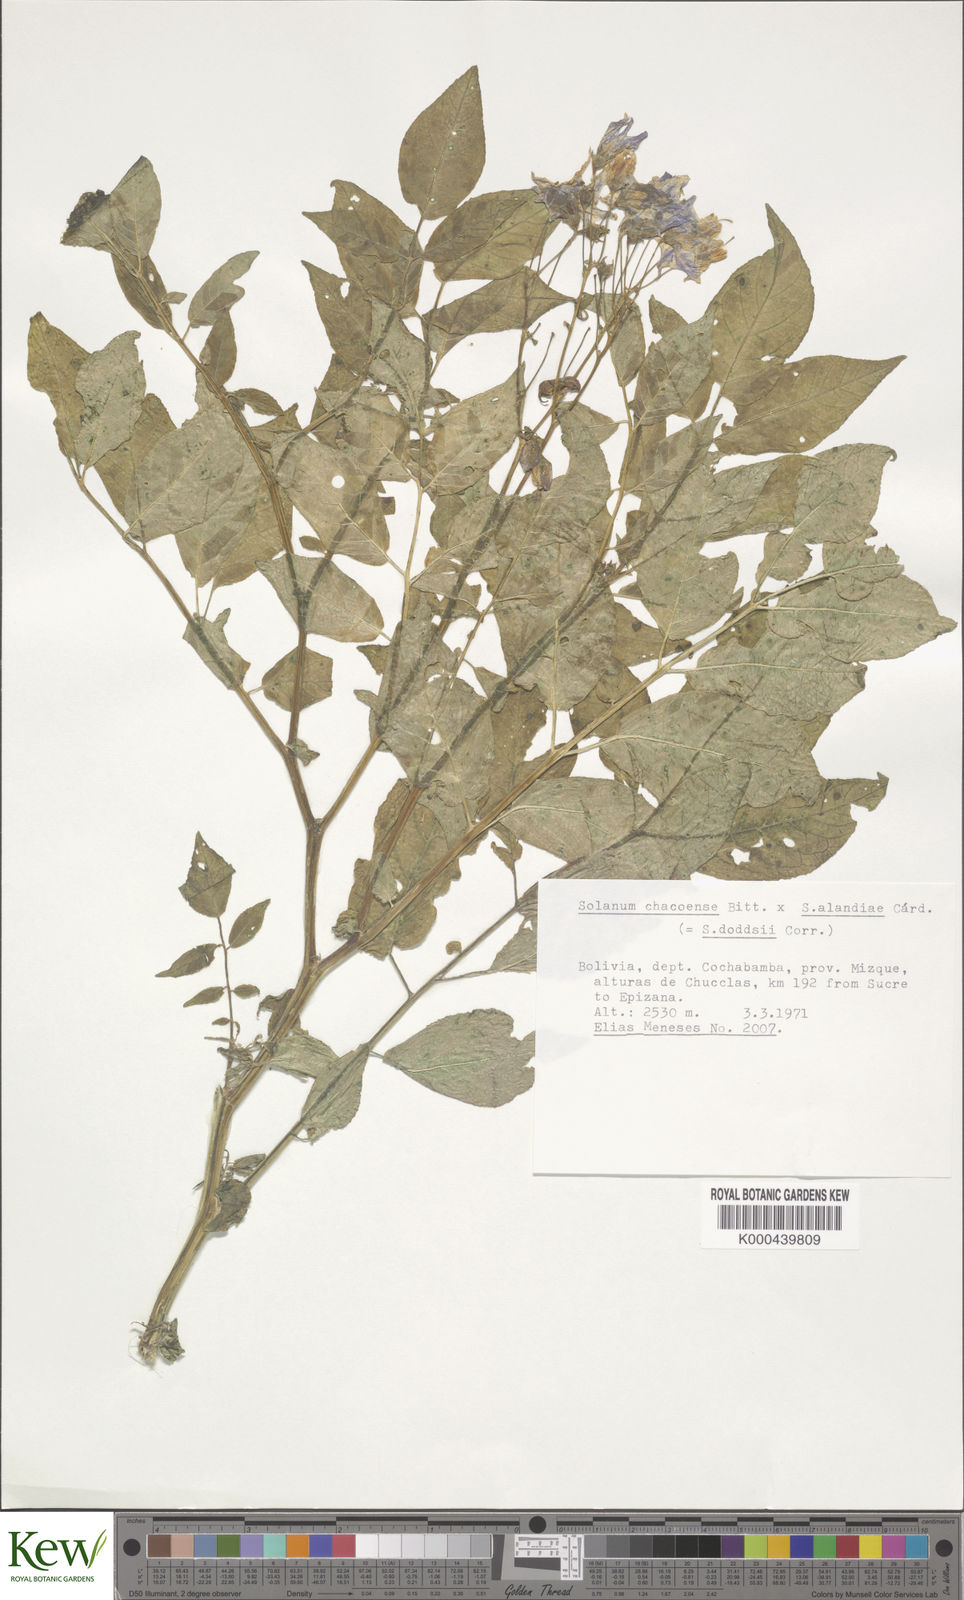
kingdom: Plantae
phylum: Tracheophyta
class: Magnoliopsida
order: Solanales
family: Solanaceae
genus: Solanum
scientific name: Solanum doddsii
